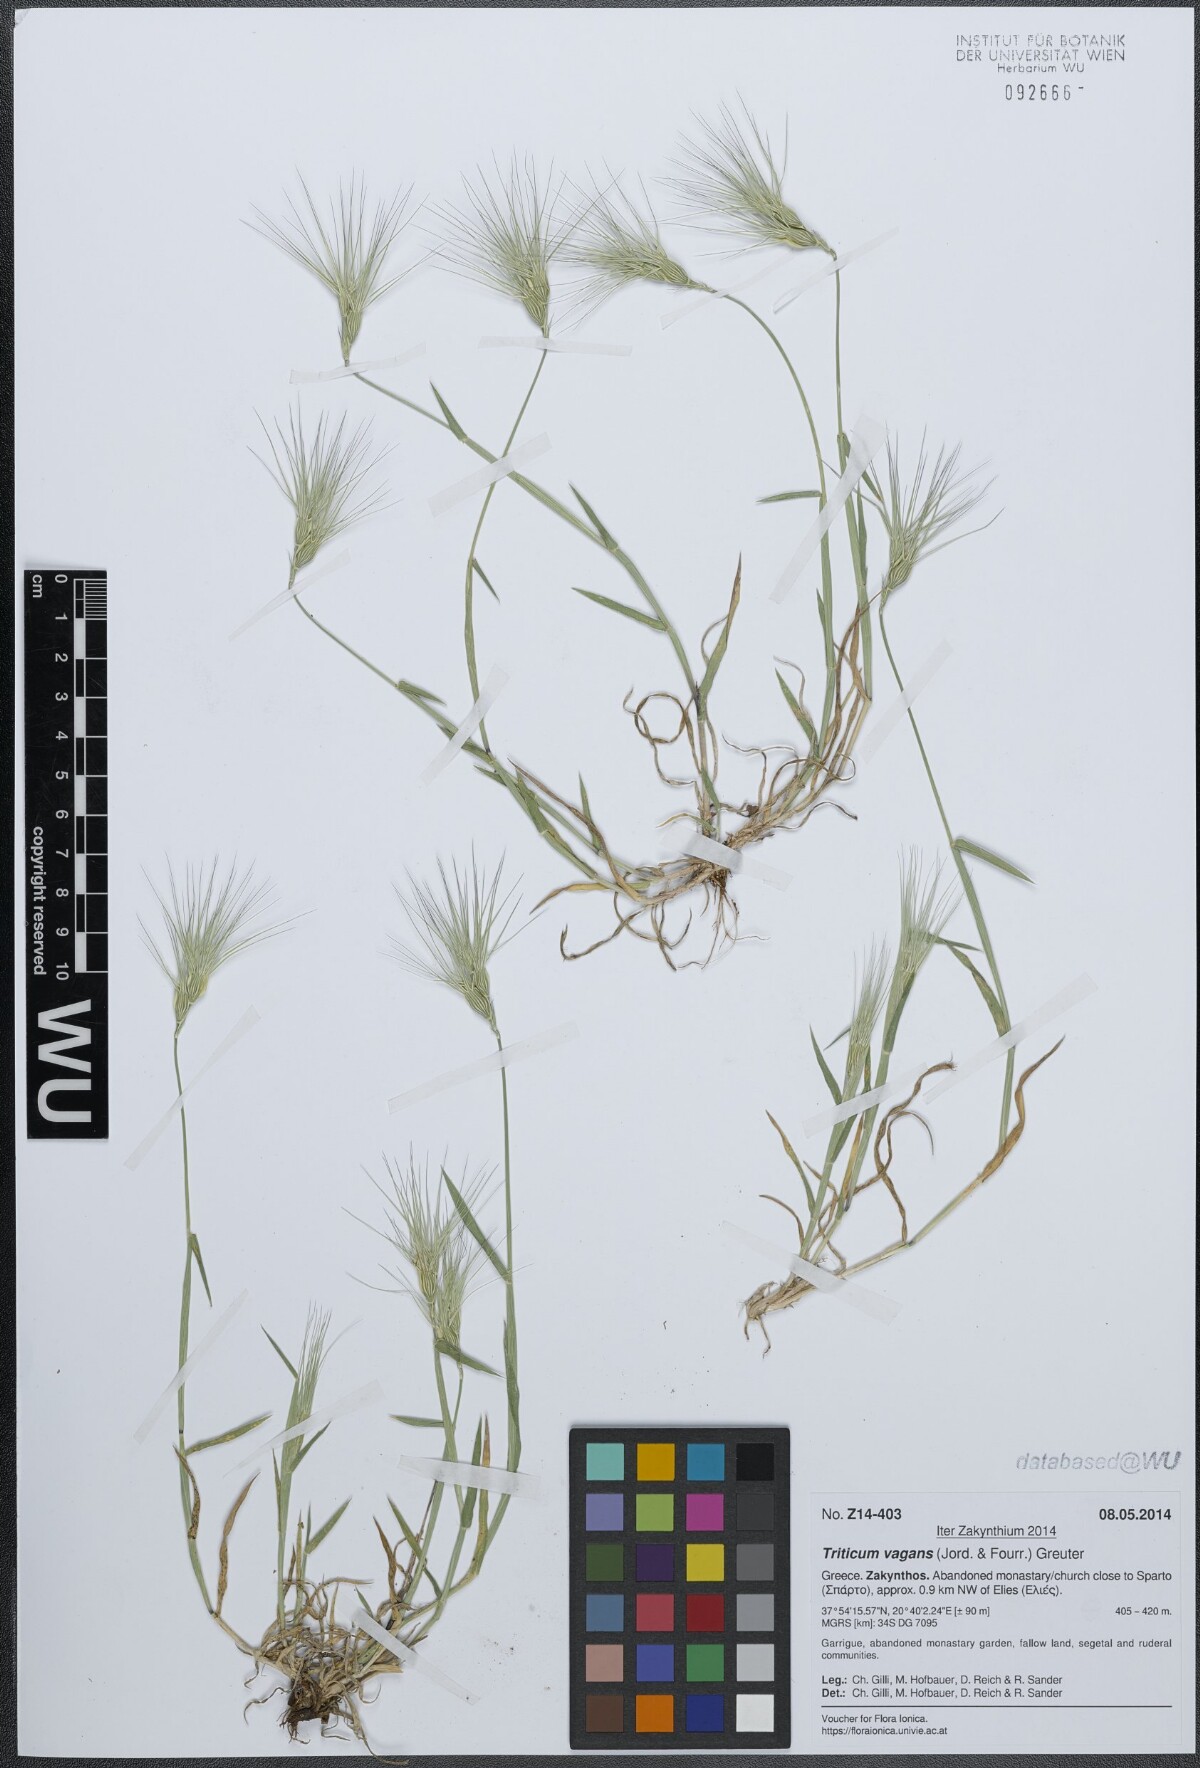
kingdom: Plantae
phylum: Tracheophyta
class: Liliopsida
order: Poales
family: Poaceae
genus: Aegilops
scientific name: Aegilops geniculata
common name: Ovate goat grass
